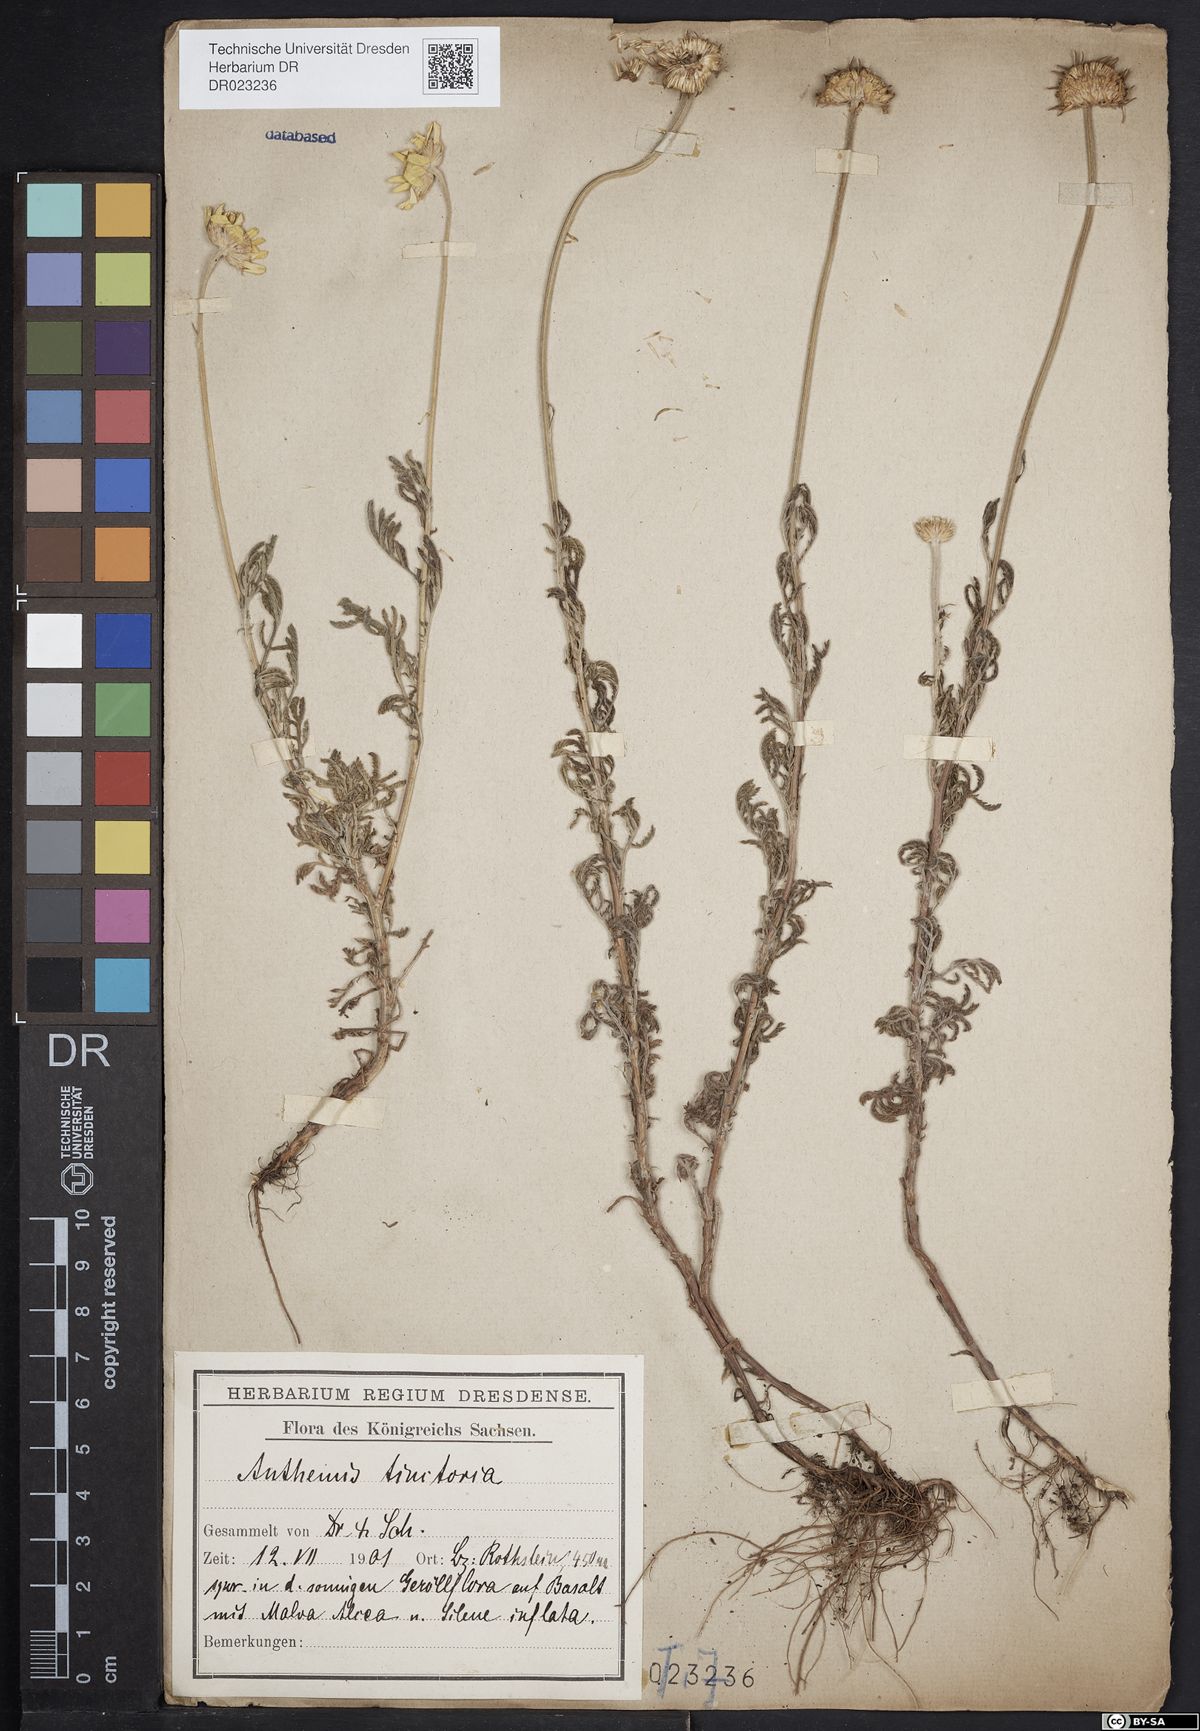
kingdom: Plantae
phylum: Tracheophyta
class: Magnoliopsida
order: Asterales
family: Asteraceae
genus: Cota
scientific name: Cota tinctoria
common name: Golden chamomile
